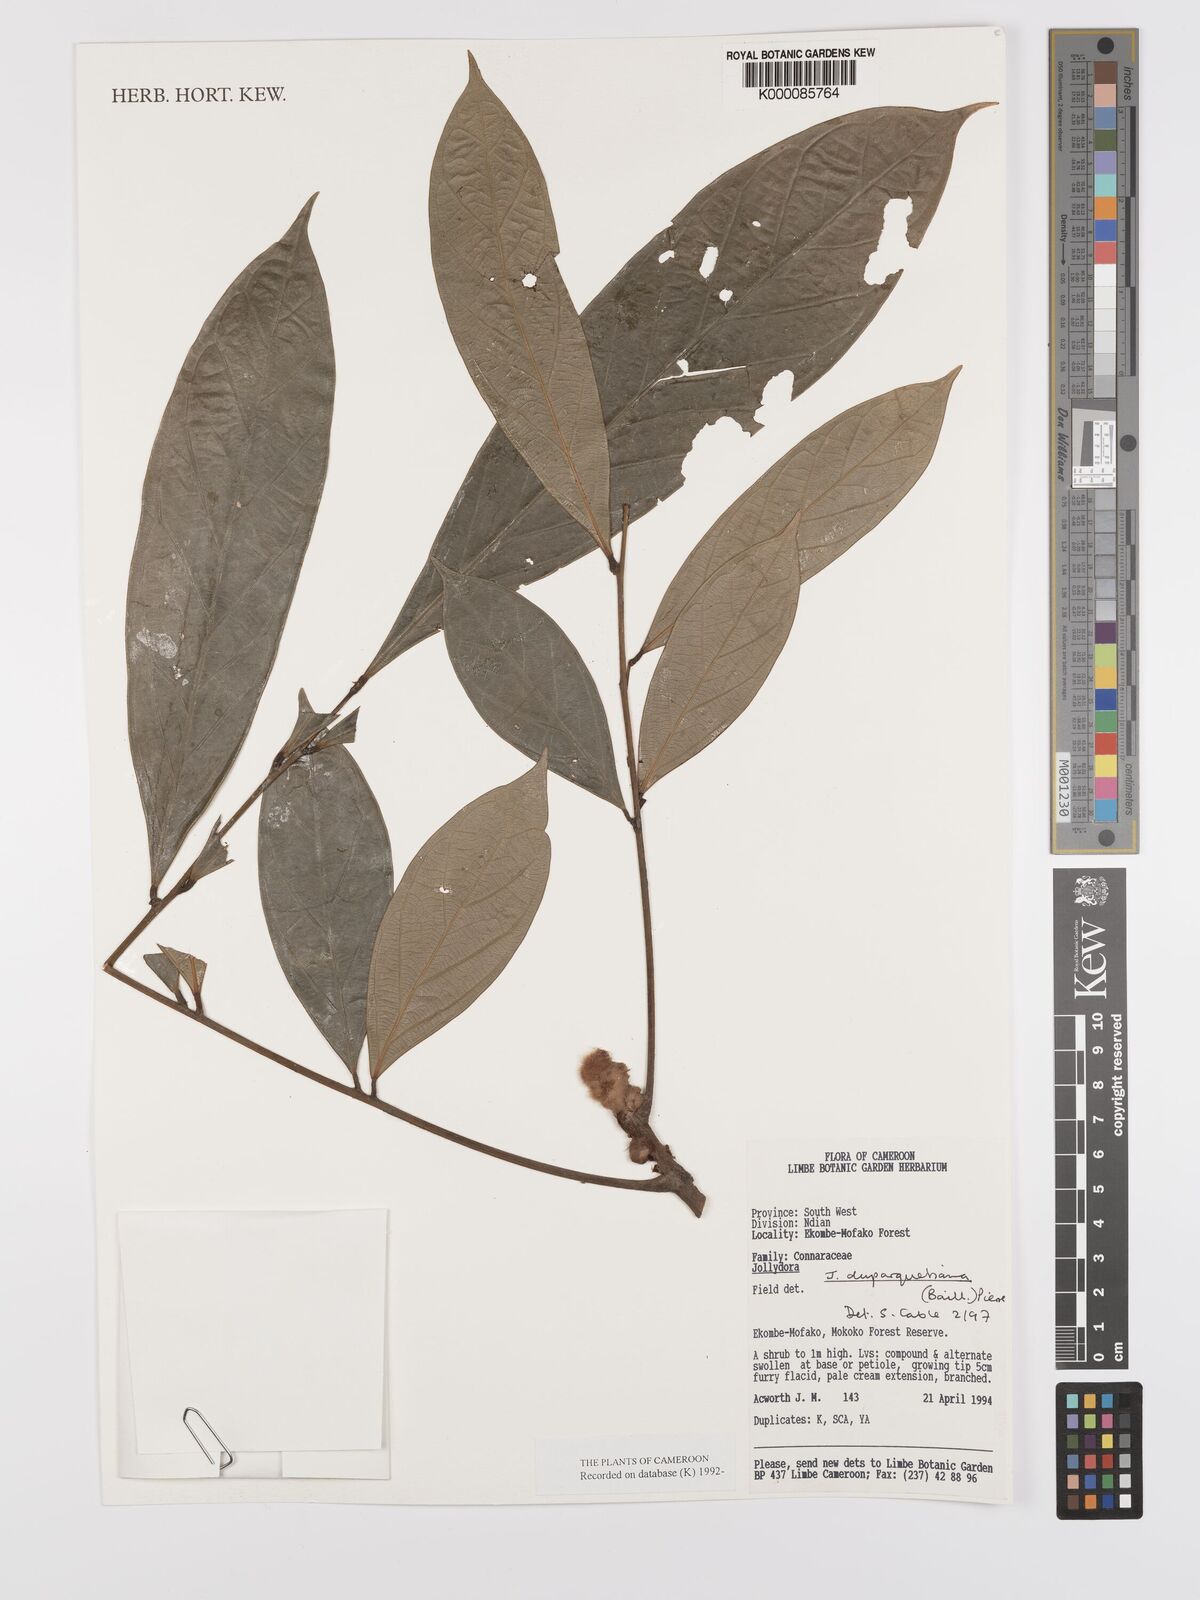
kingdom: Plantae
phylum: Tracheophyta
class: Magnoliopsida
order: Oxalidales
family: Connaraceae
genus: Jollydora
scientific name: Jollydora duparquetiana
